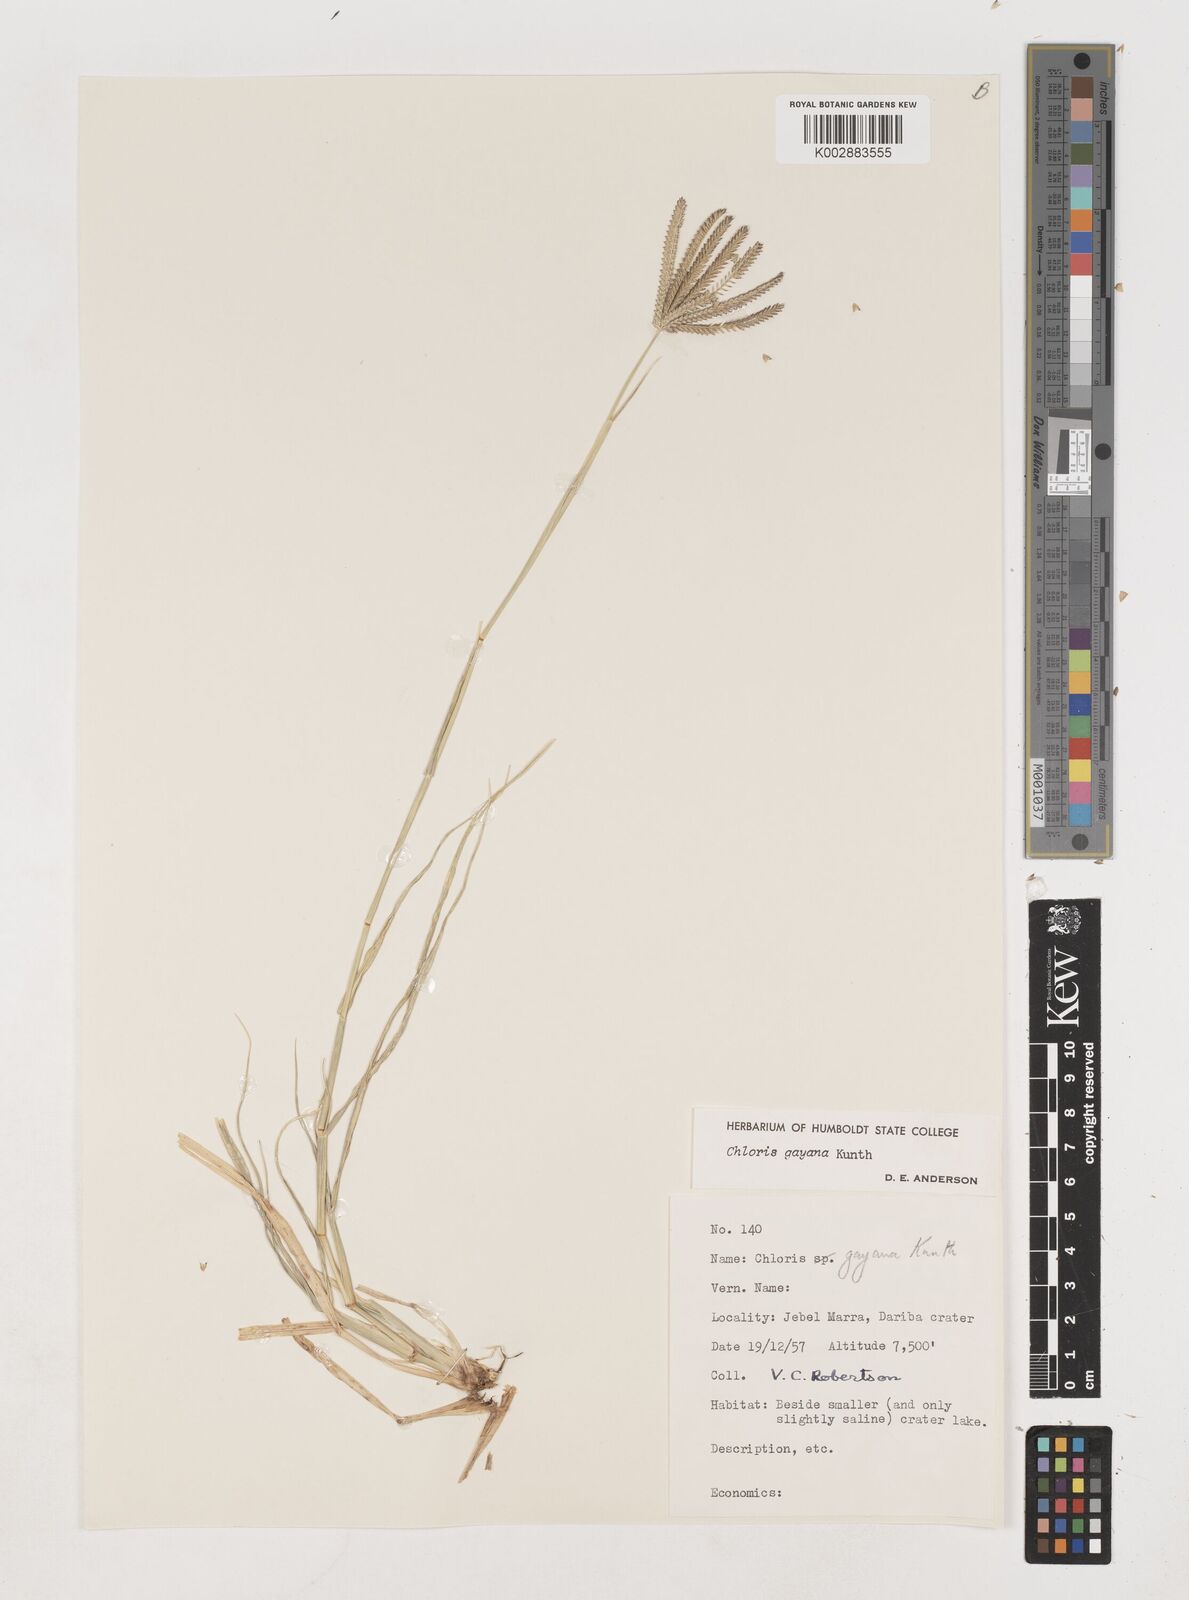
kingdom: Plantae
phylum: Tracheophyta
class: Liliopsida
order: Poales
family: Poaceae
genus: Chloris
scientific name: Chloris gayana
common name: Rhodes grass
